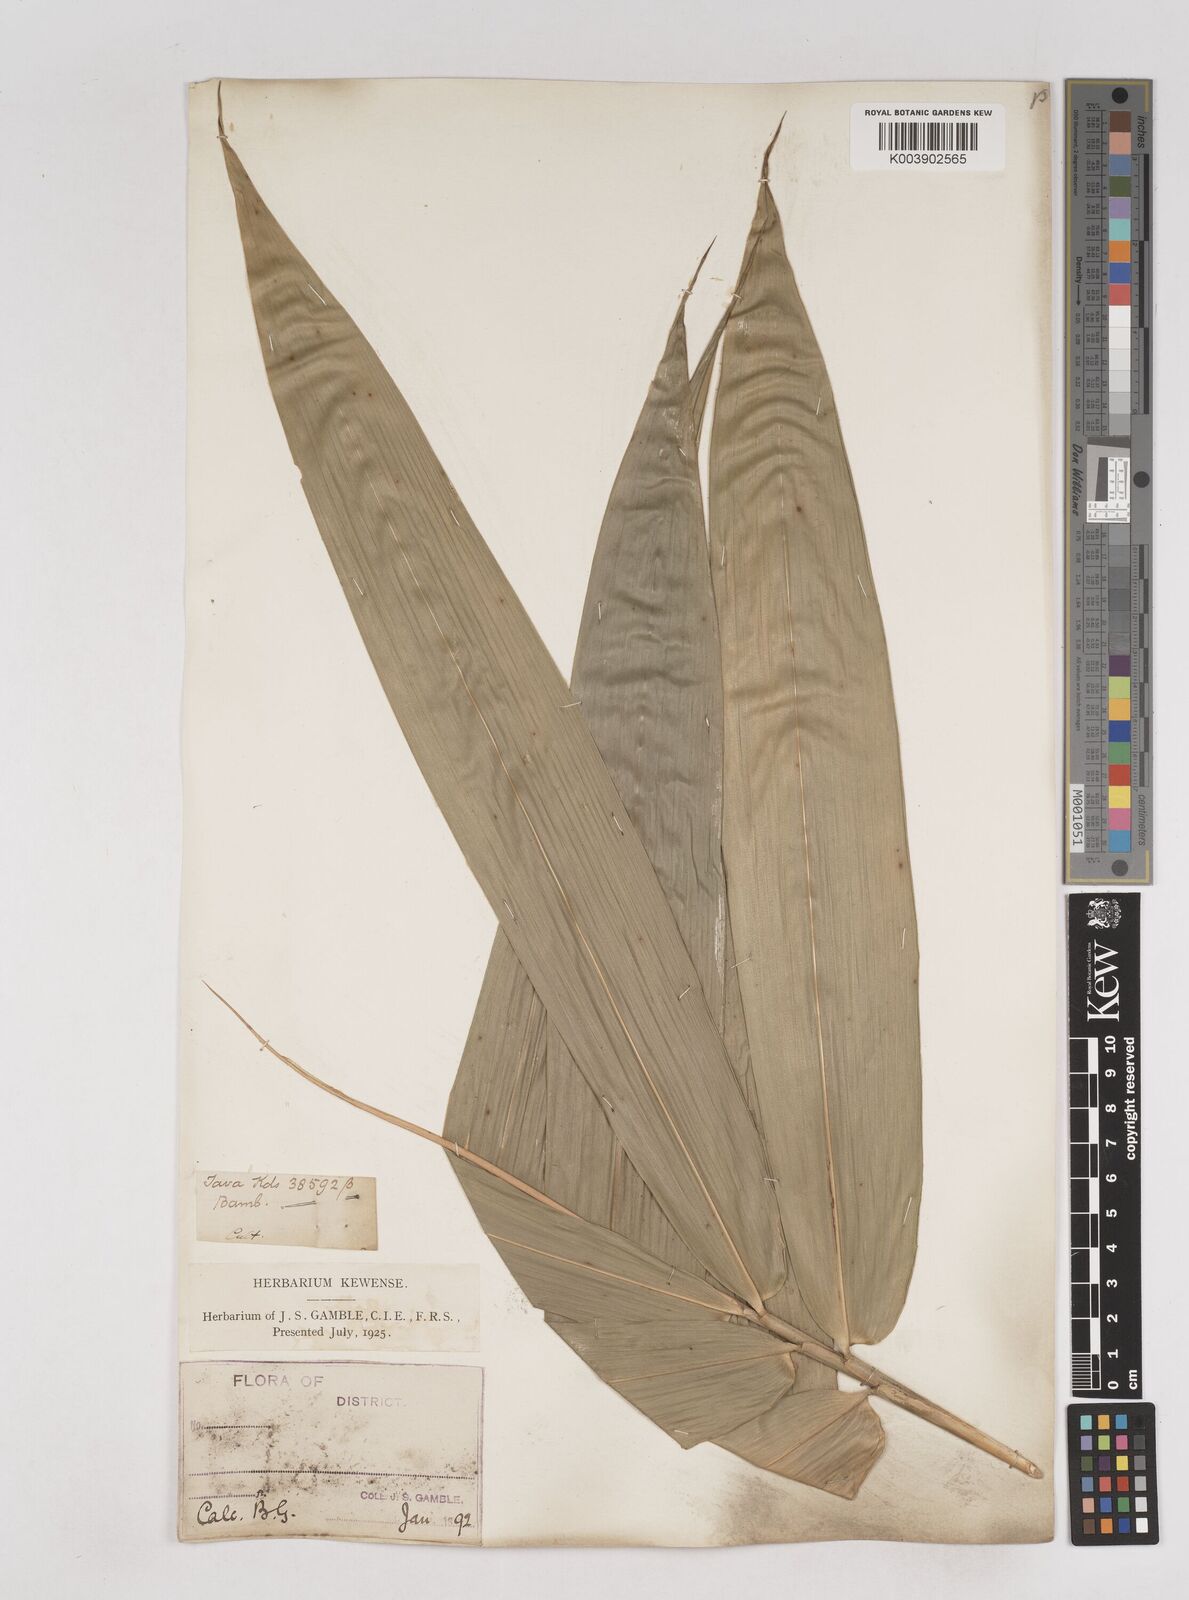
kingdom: Plantae
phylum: Tracheophyta
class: Liliopsida
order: Poales
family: Poaceae
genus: Schizostachyum
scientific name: Schizostachyum
